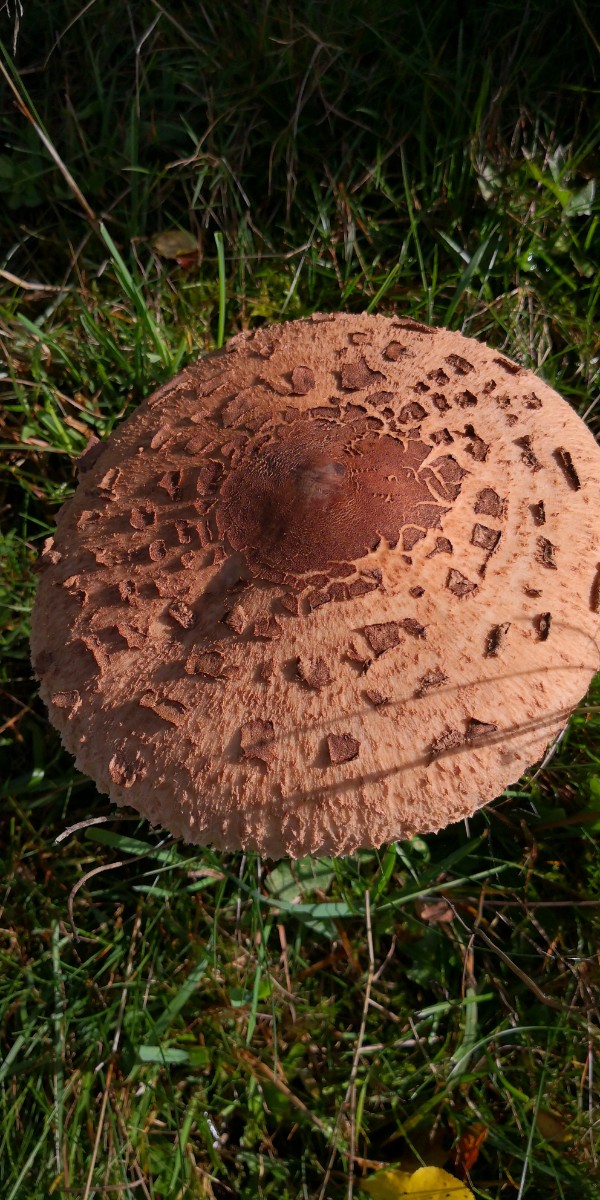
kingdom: Fungi
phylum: Basidiomycota
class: Agaricomycetes
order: Agaricales
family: Agaricaceae
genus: Macrolepiota
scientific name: Macrolepiota
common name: kæmpeparasolhat
